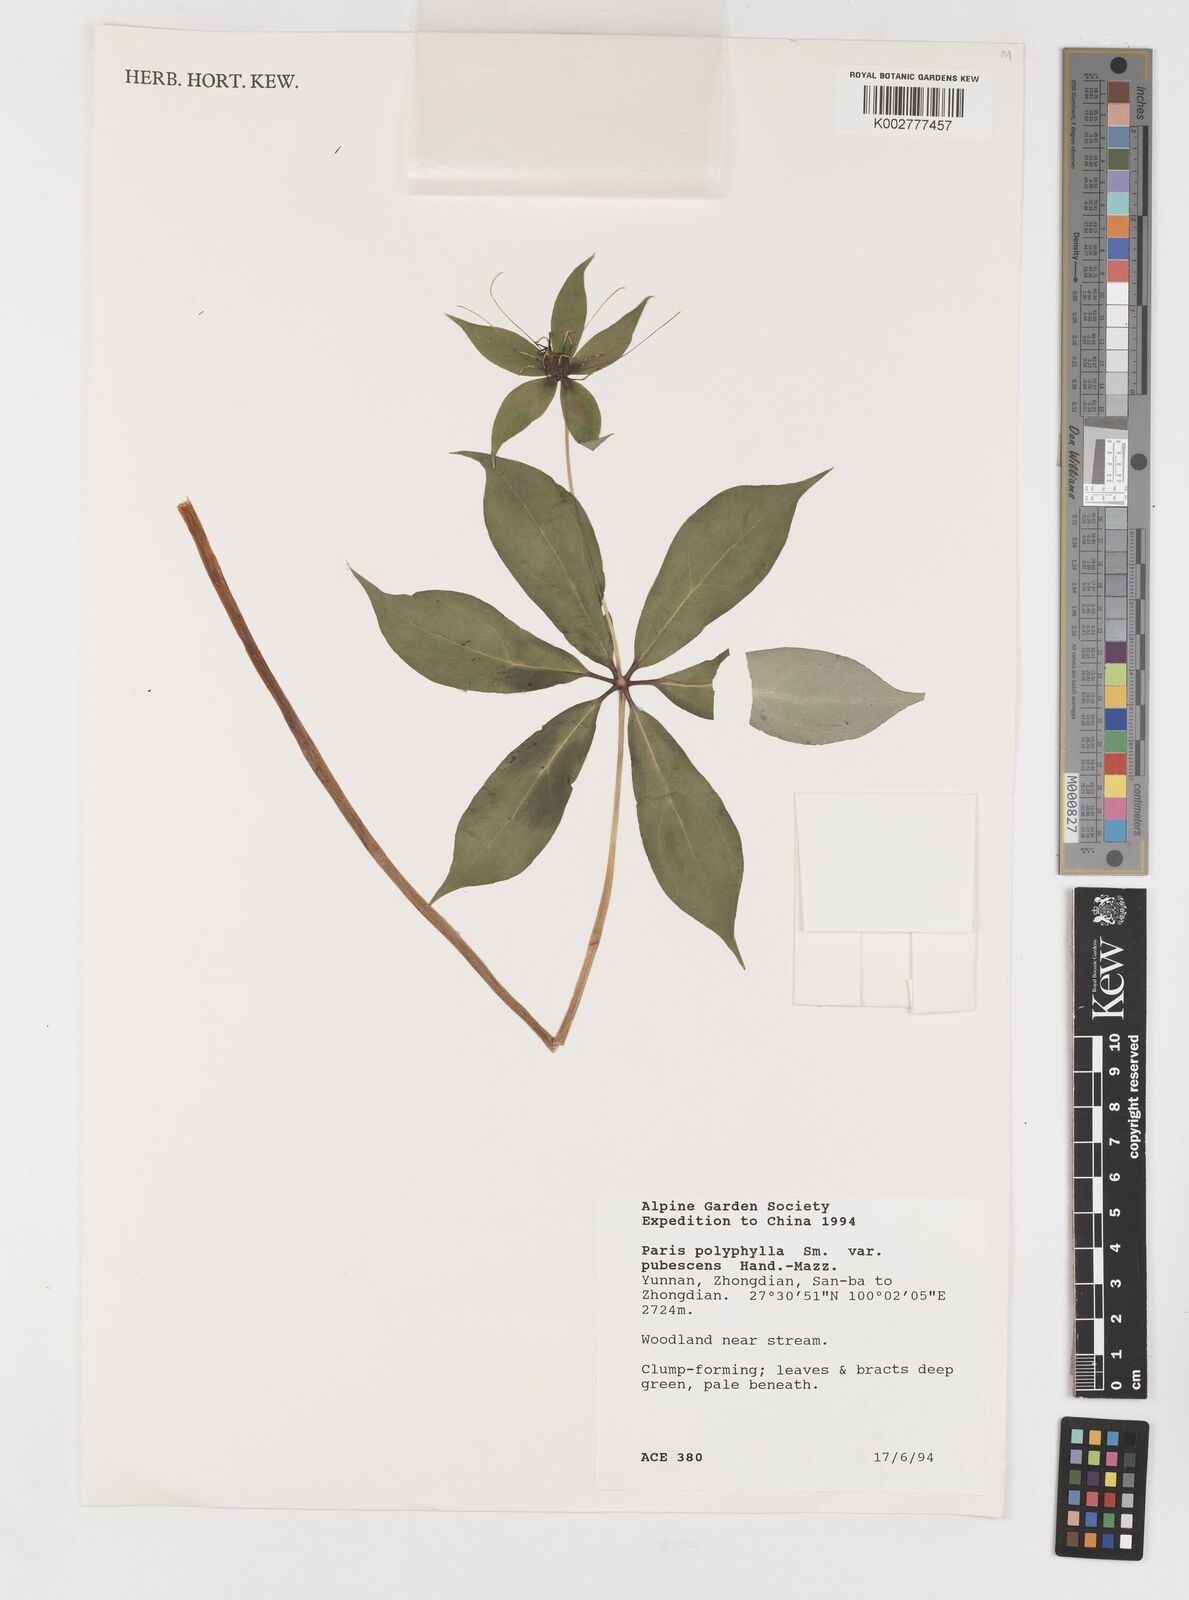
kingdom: Plantae
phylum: Tracheophyta
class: Liliopsida
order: Liliales
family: Melanthiaceae
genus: Paris
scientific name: Paris polyphylla
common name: Love apple
